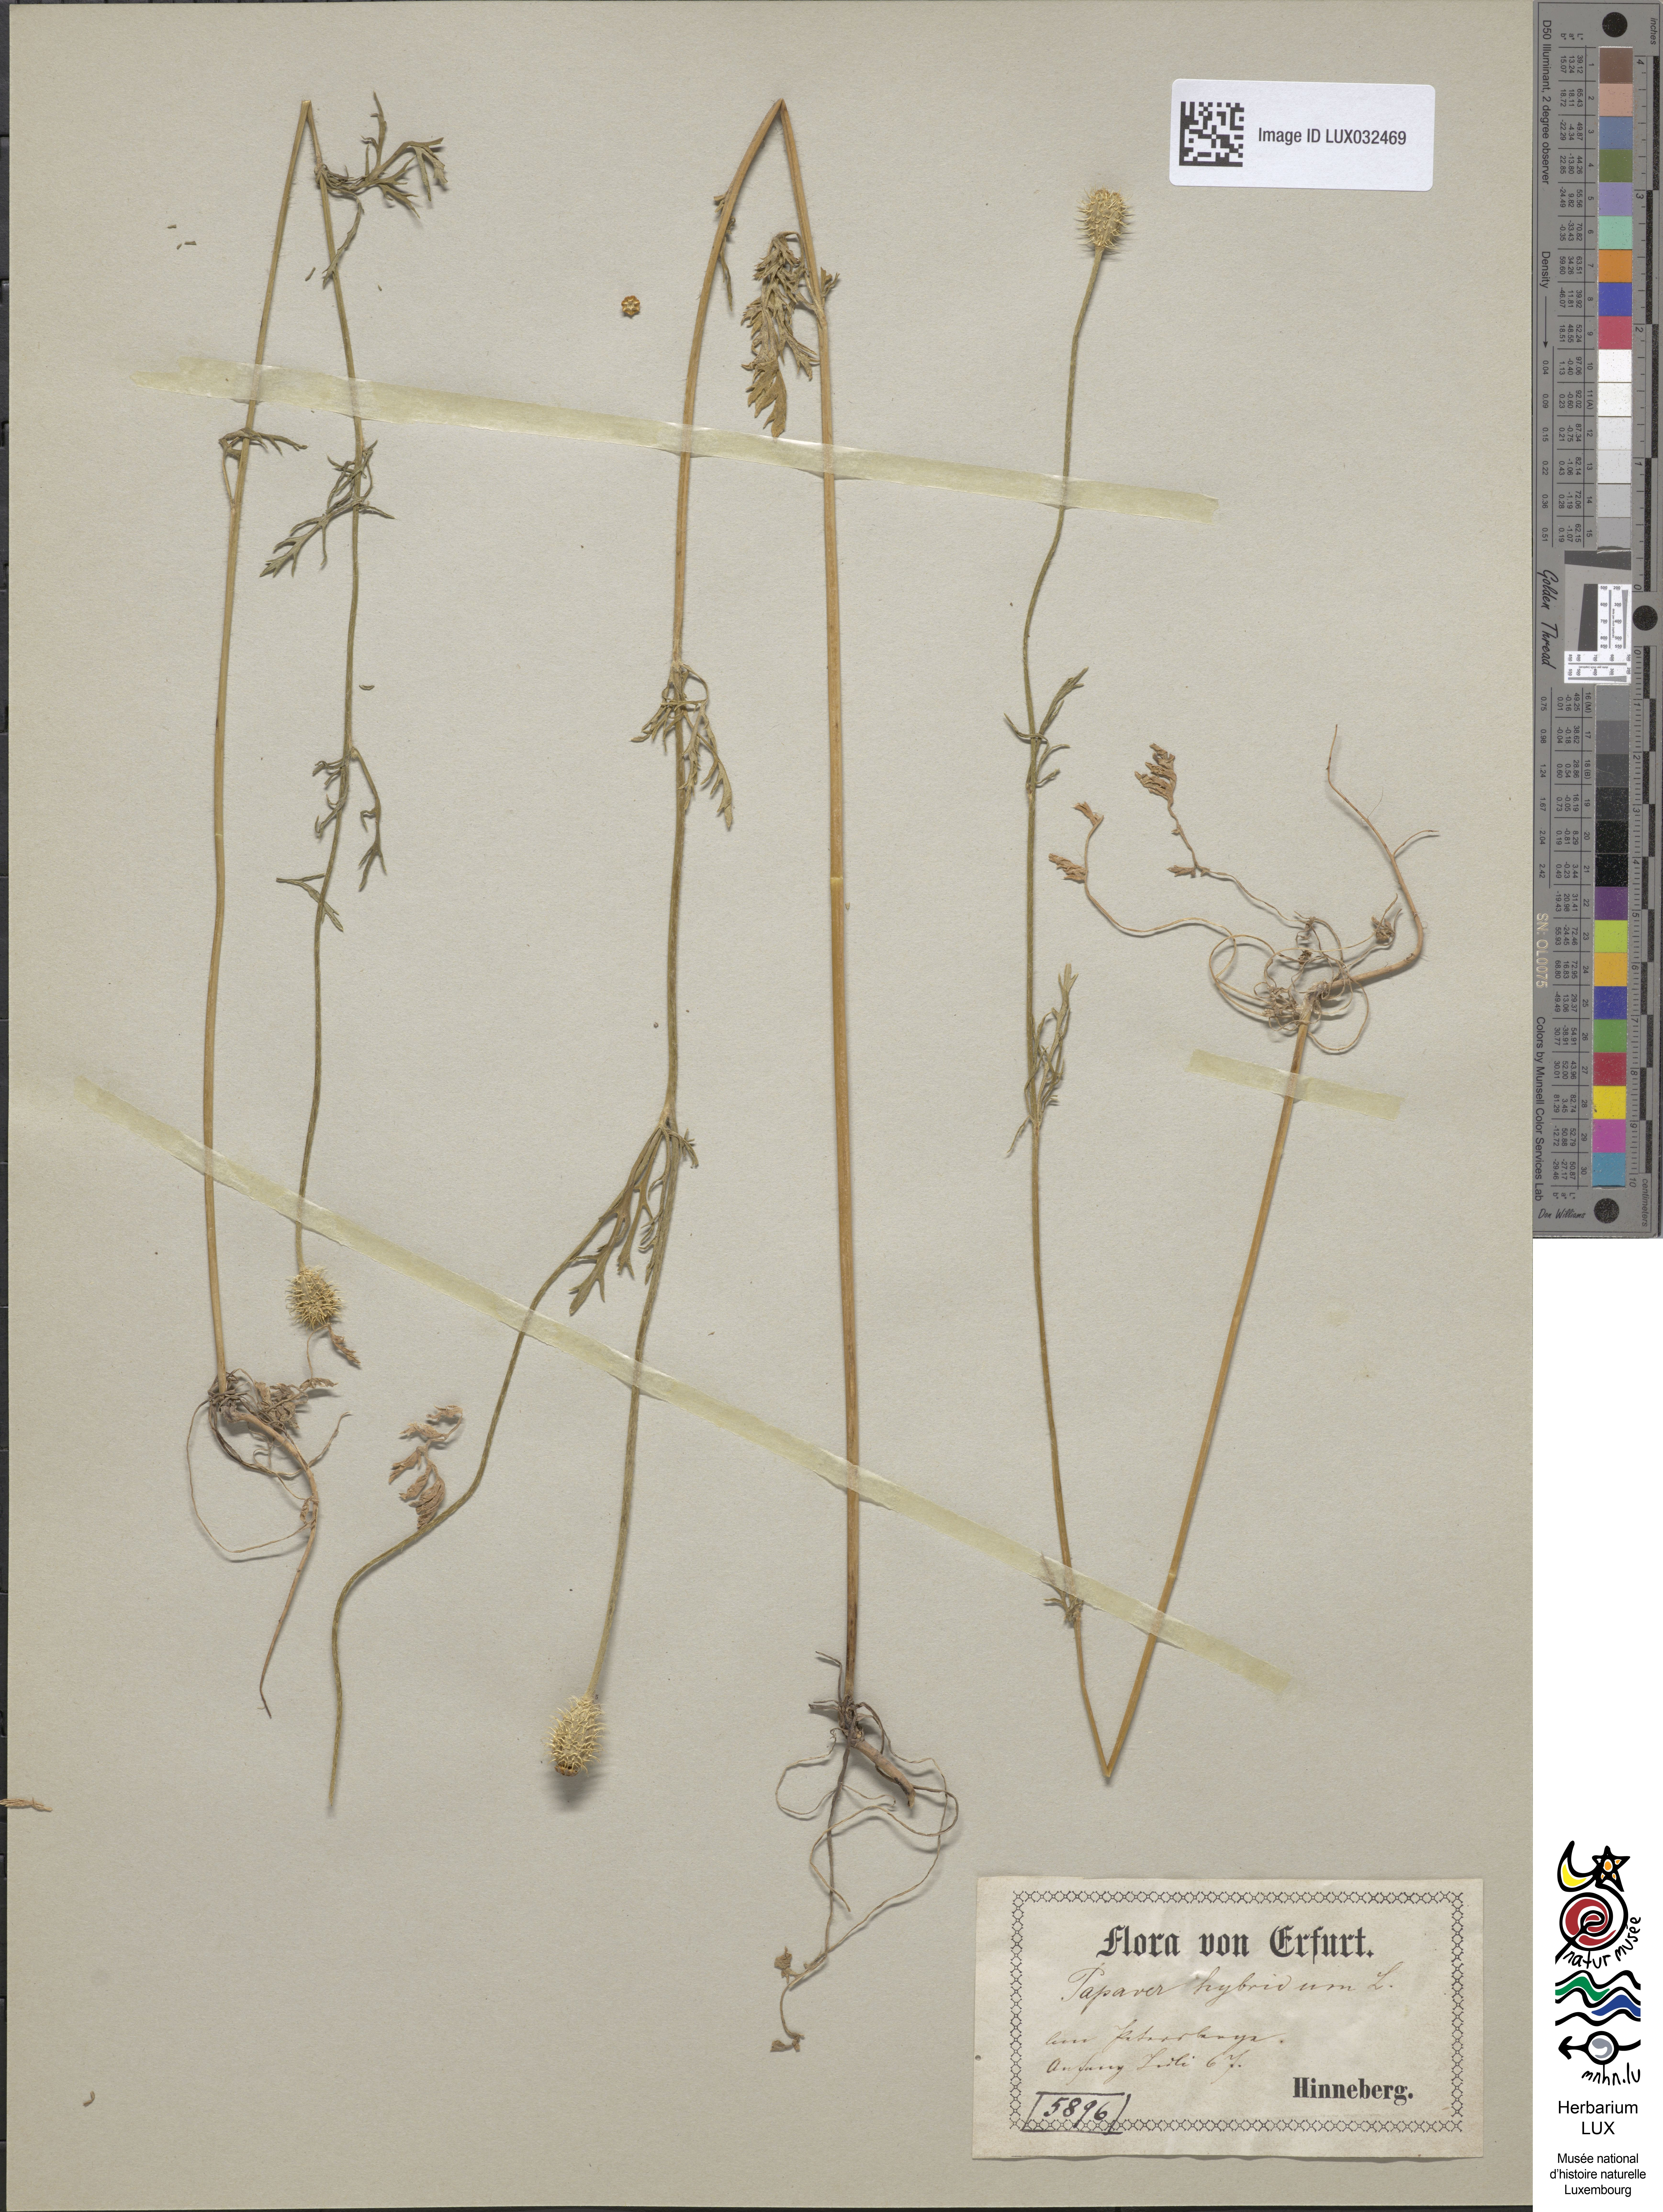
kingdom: Plantae
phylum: Tracheophyta
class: Magnoliopsida
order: Ranunculales
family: Papaveraceae
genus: Roemeria
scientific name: Roemeria hispida
